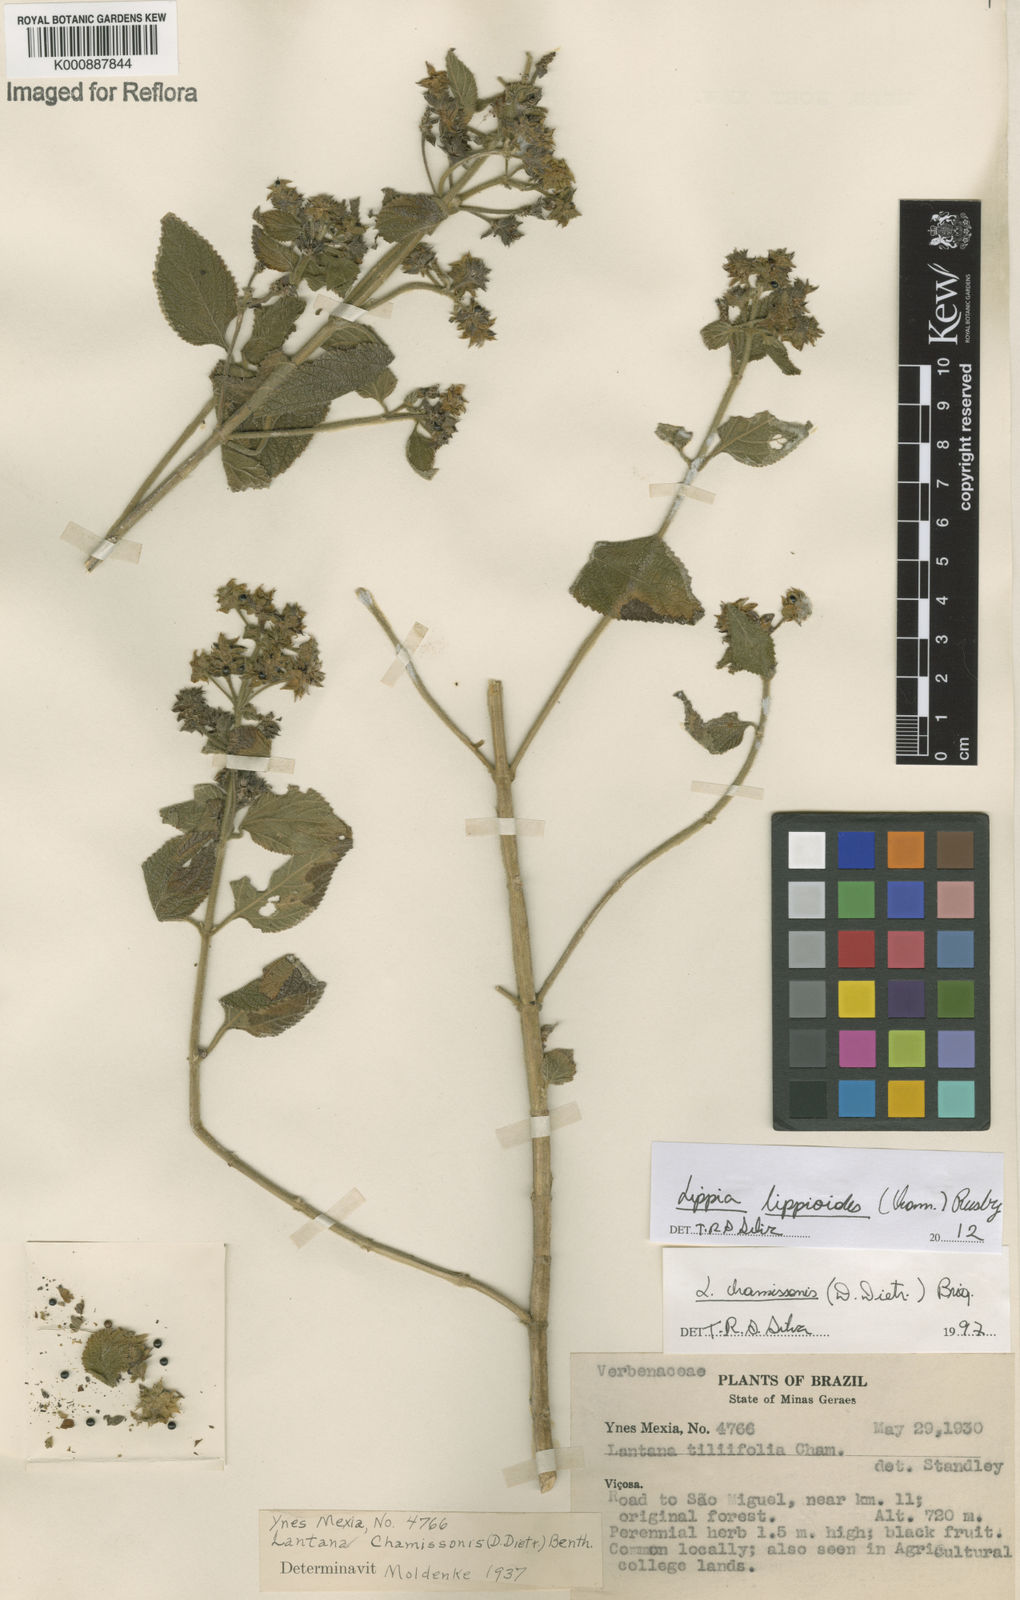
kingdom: Plantae
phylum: Tracheophyta
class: Magnoliopsida
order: Lamiales
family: Verbenaceae
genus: Lippia
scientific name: Lippia lippioides
